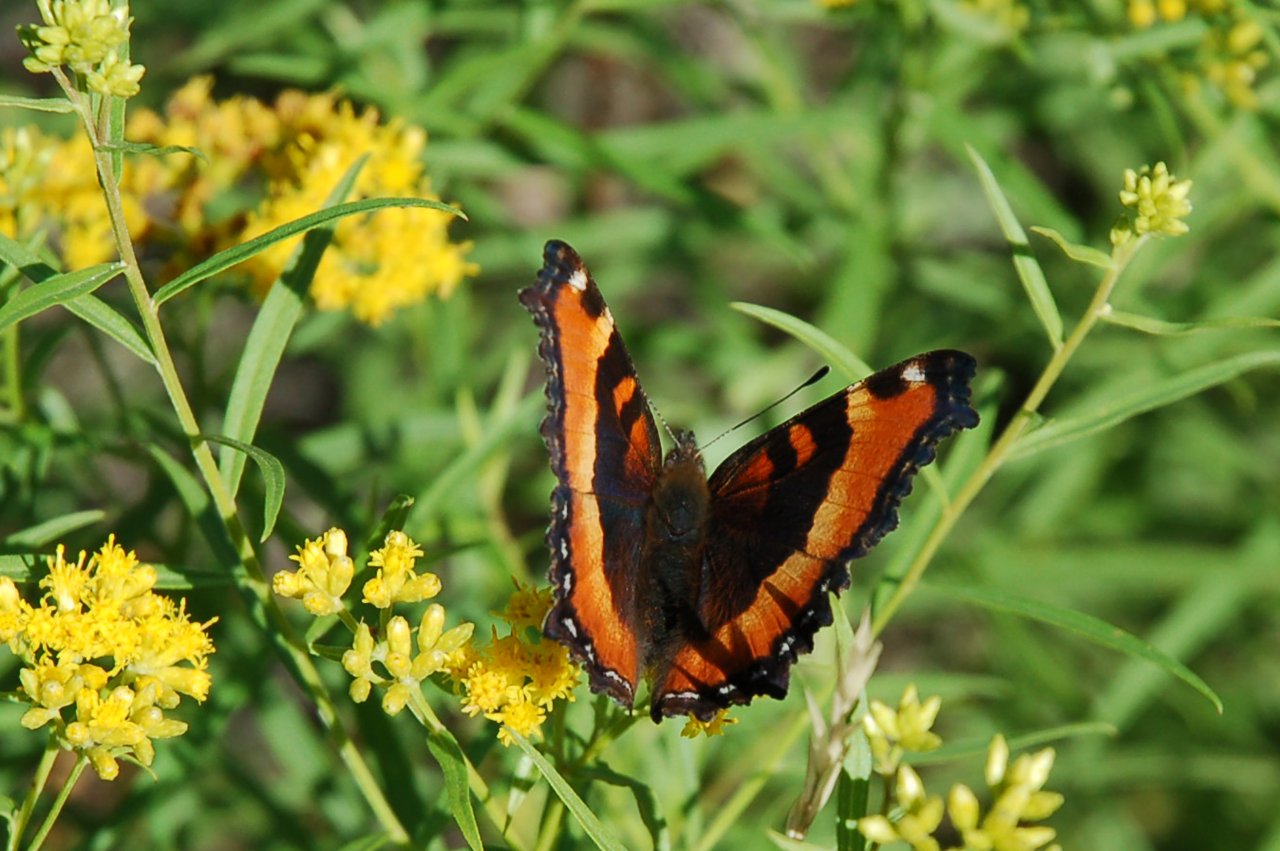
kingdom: Animalia
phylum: Arthropoda
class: Insecta
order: Lepidoptera
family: Nymphalidae
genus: Aglais
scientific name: Aglais milberti
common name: Milbert's Tortoiseshell
